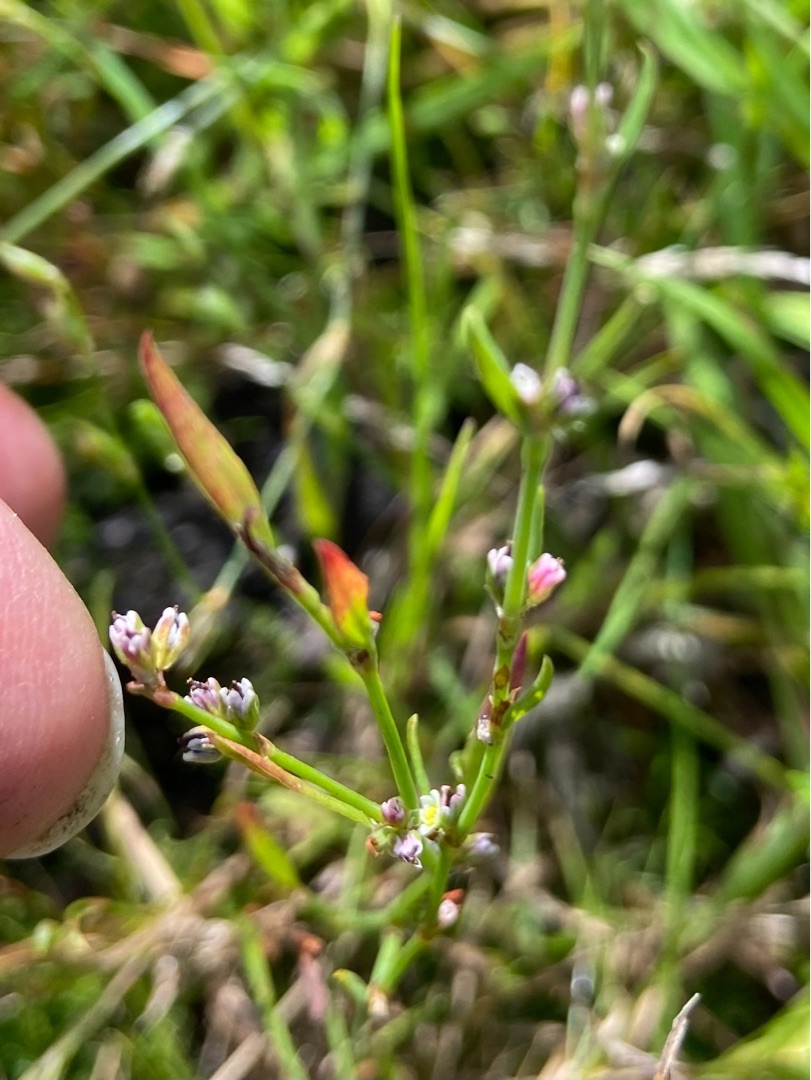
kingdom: Plantae
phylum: Tracheophyta
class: Magnoliopsida
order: Caryophyllales
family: Polygonaceae
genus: Polygonum
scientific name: Polygonum aviculare
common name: Vej-pileurt
